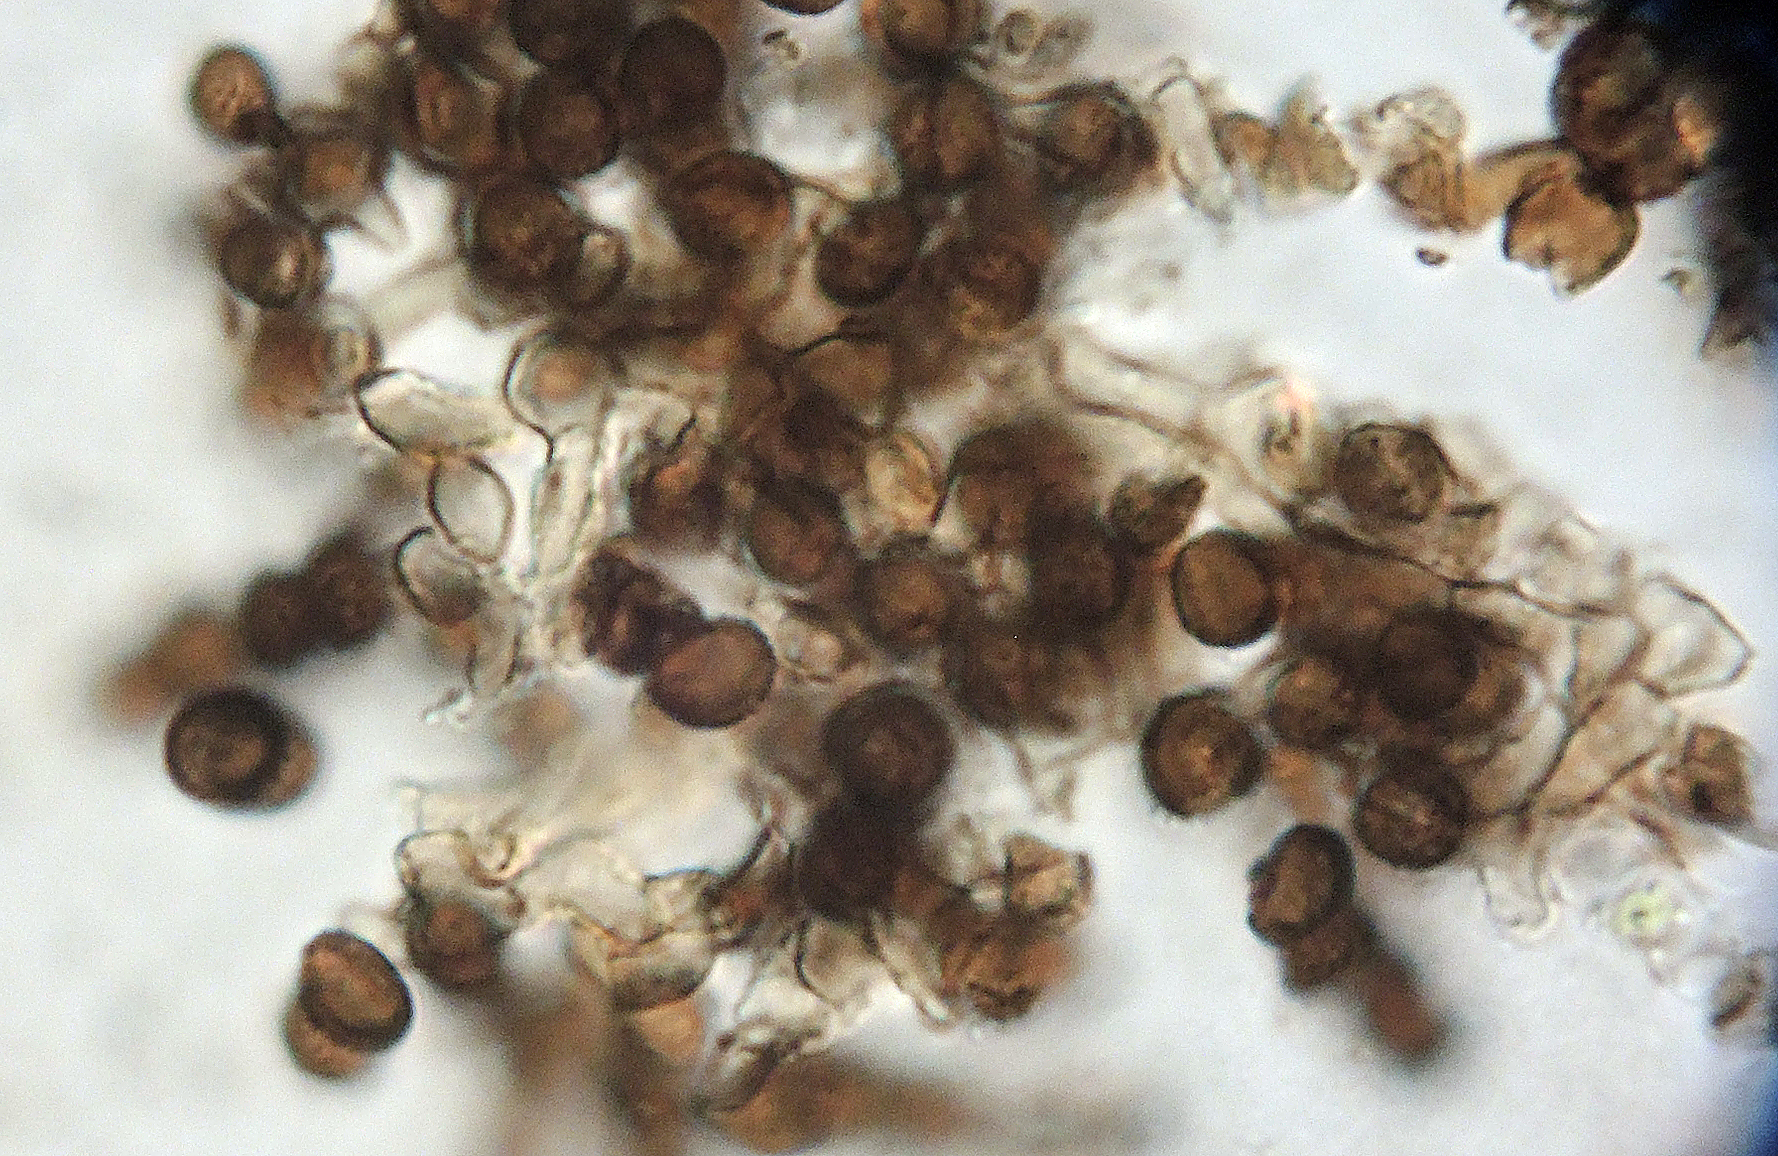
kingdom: Fungi
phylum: Ascomycota
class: Dothideomycetes
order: Pleosporales
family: Torulaceae
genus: Rutola
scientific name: Rutola graminis
